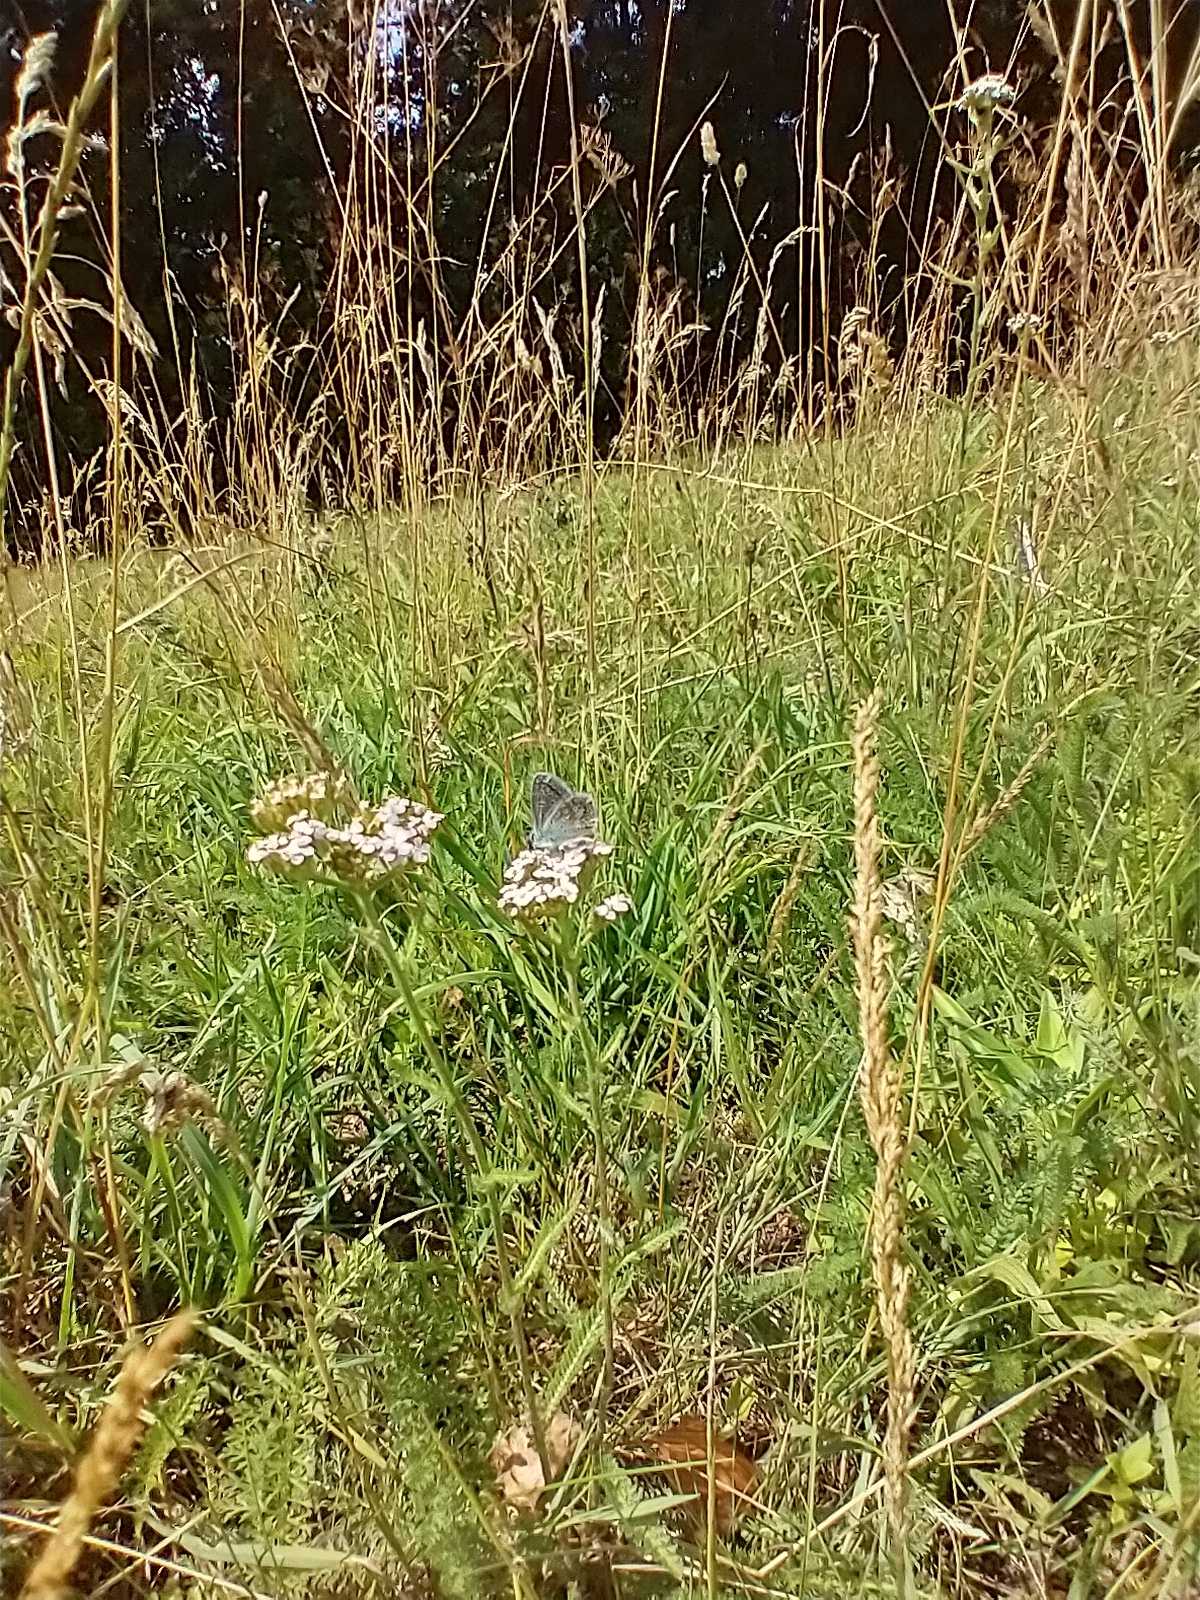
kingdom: Animalia
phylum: Arthropoda
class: Insecta
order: Lepidoptera
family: Lycaenidae
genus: Polyommatus
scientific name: Polyommatus icarus
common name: Almindelig blåfugl
